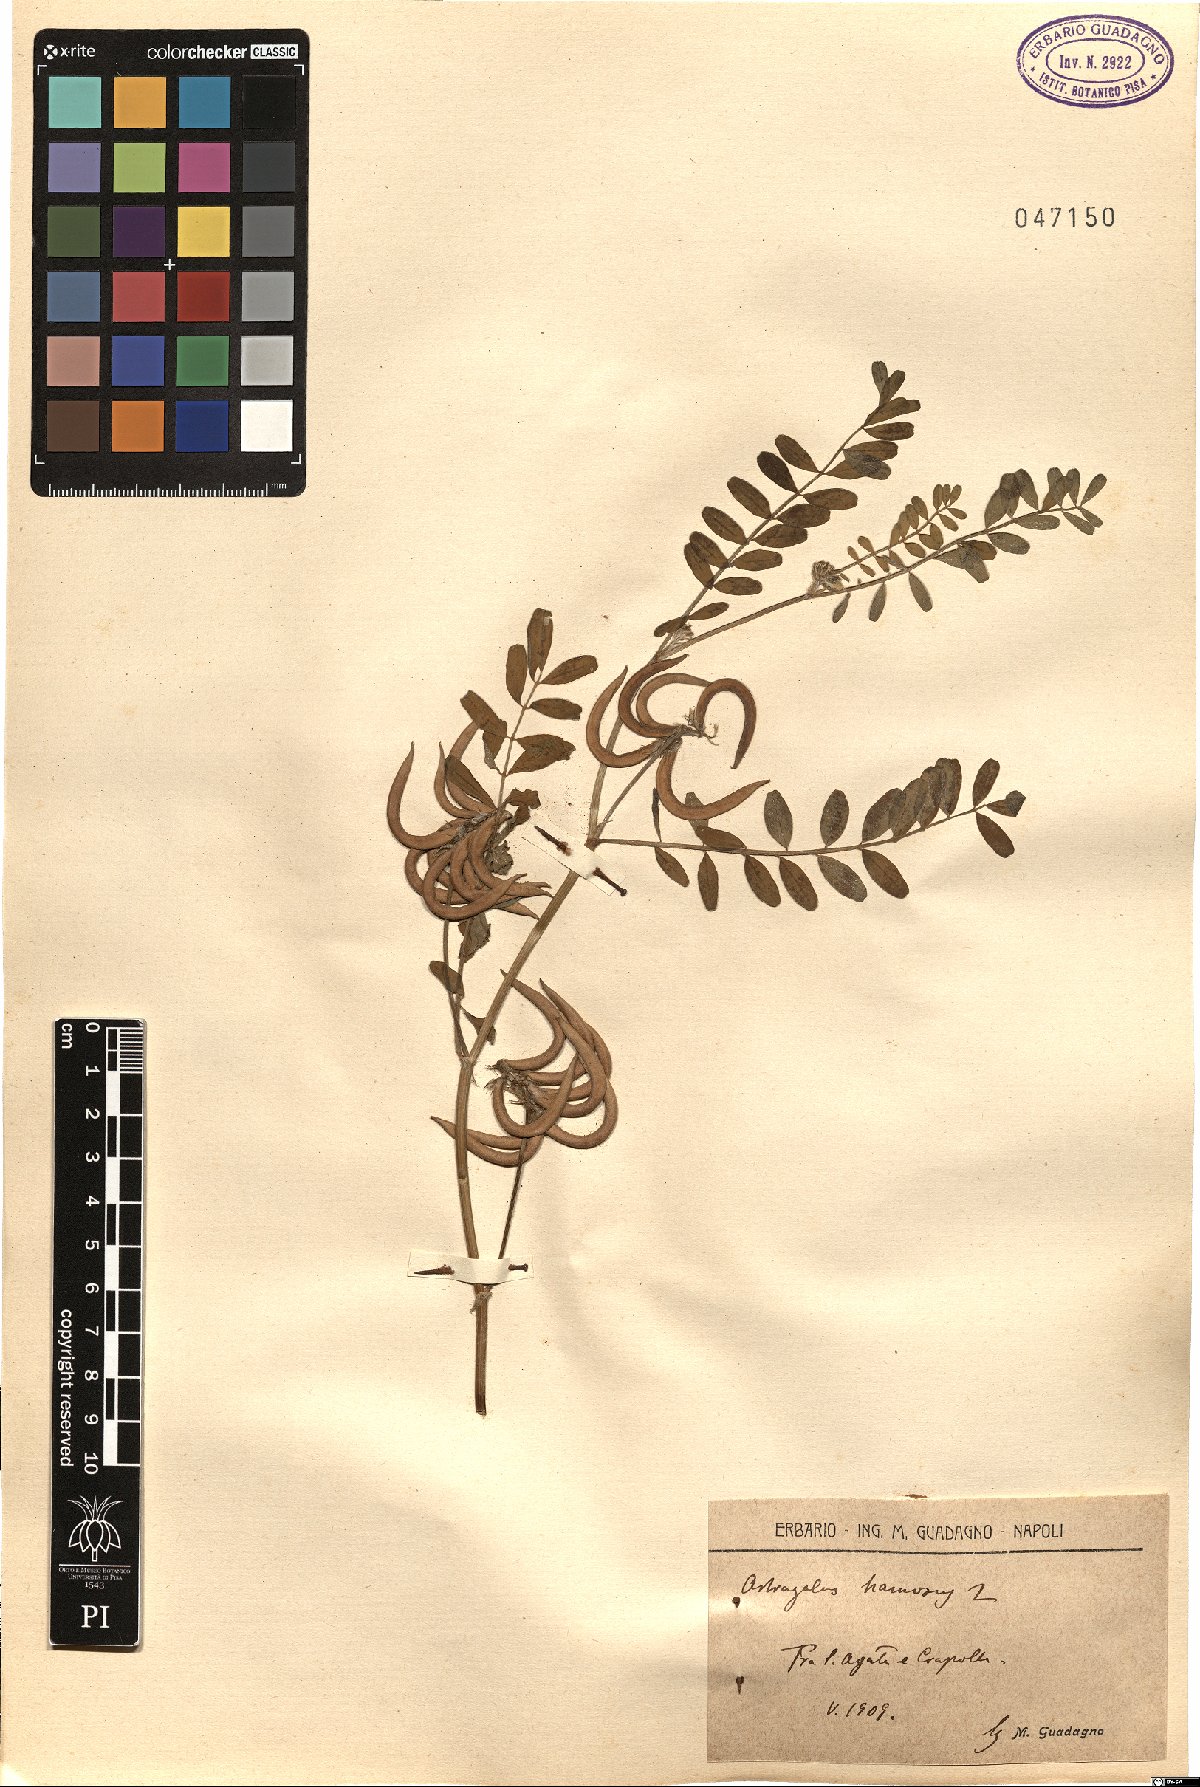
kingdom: Plantae
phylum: Tracheophyta
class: Magnoliopsida
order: Fabales
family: Fabaceae
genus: Astragalus
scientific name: Astragalus hamosus
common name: European milkvetch
